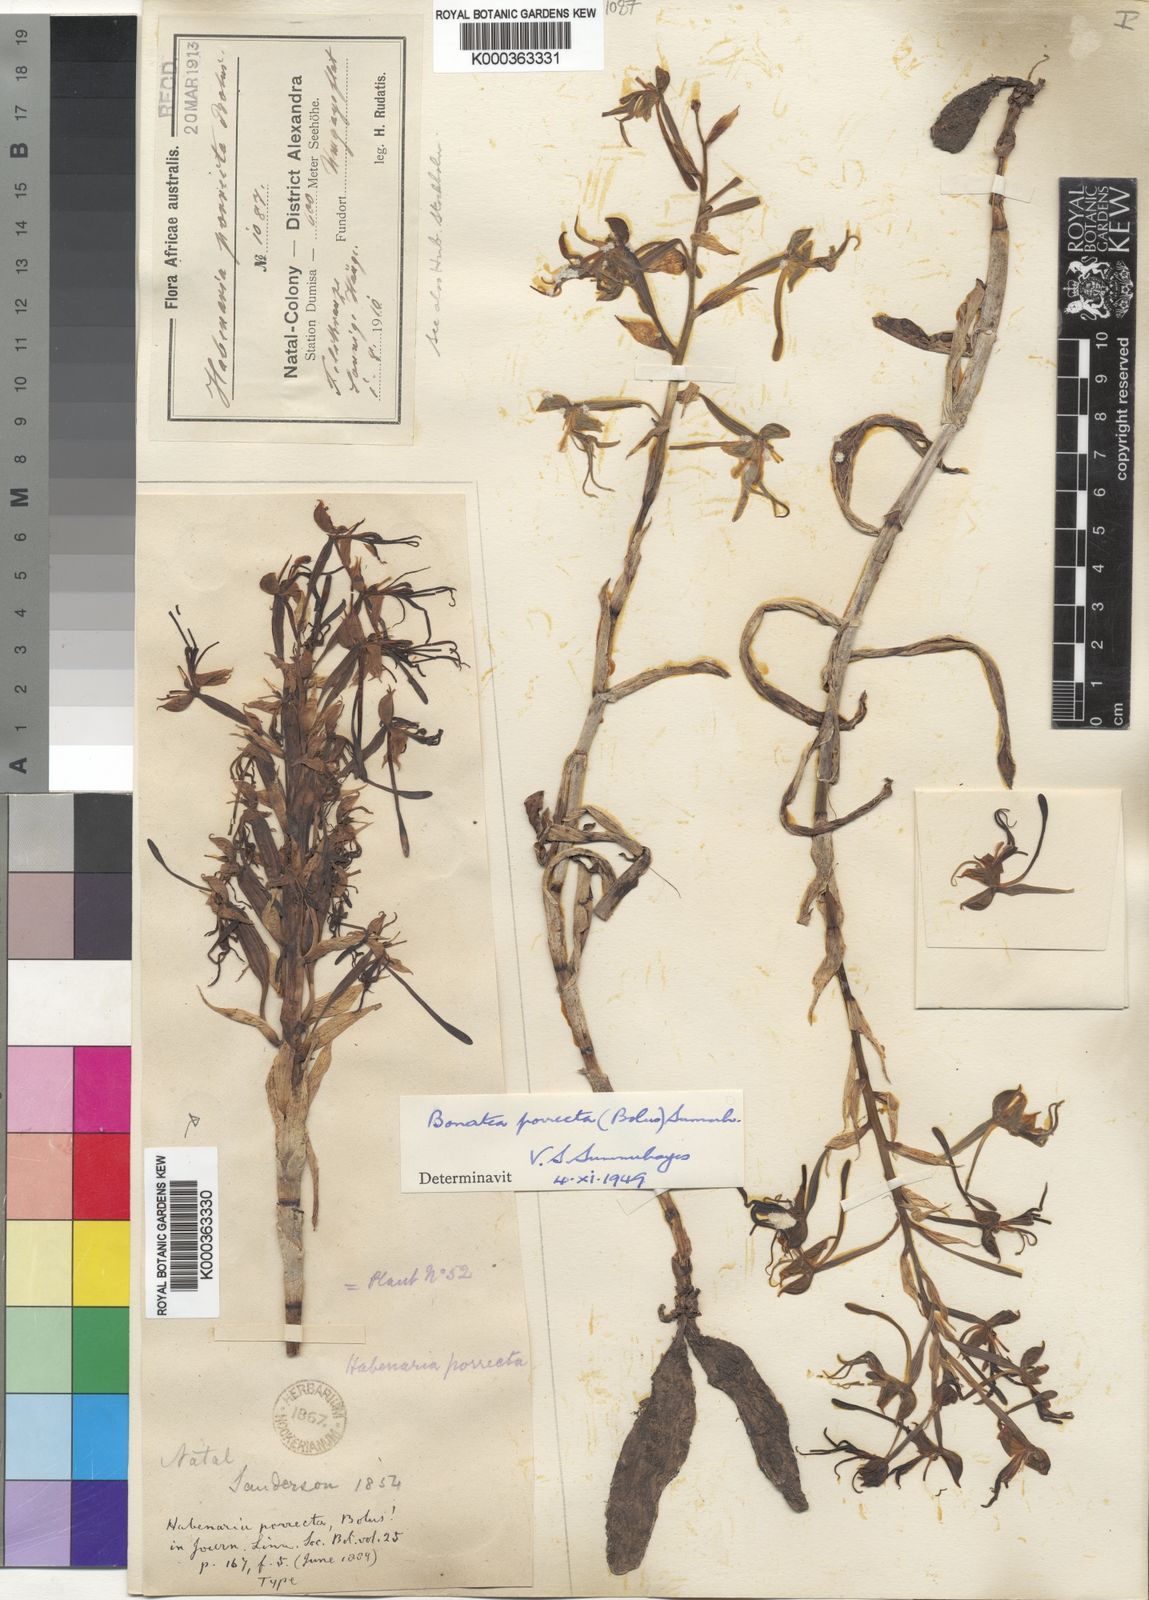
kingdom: Plantae
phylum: Tracheophyta
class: Liliopsida
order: Asparagales
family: Orchidaceae
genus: Bonatea
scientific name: Bonatea porrecta
